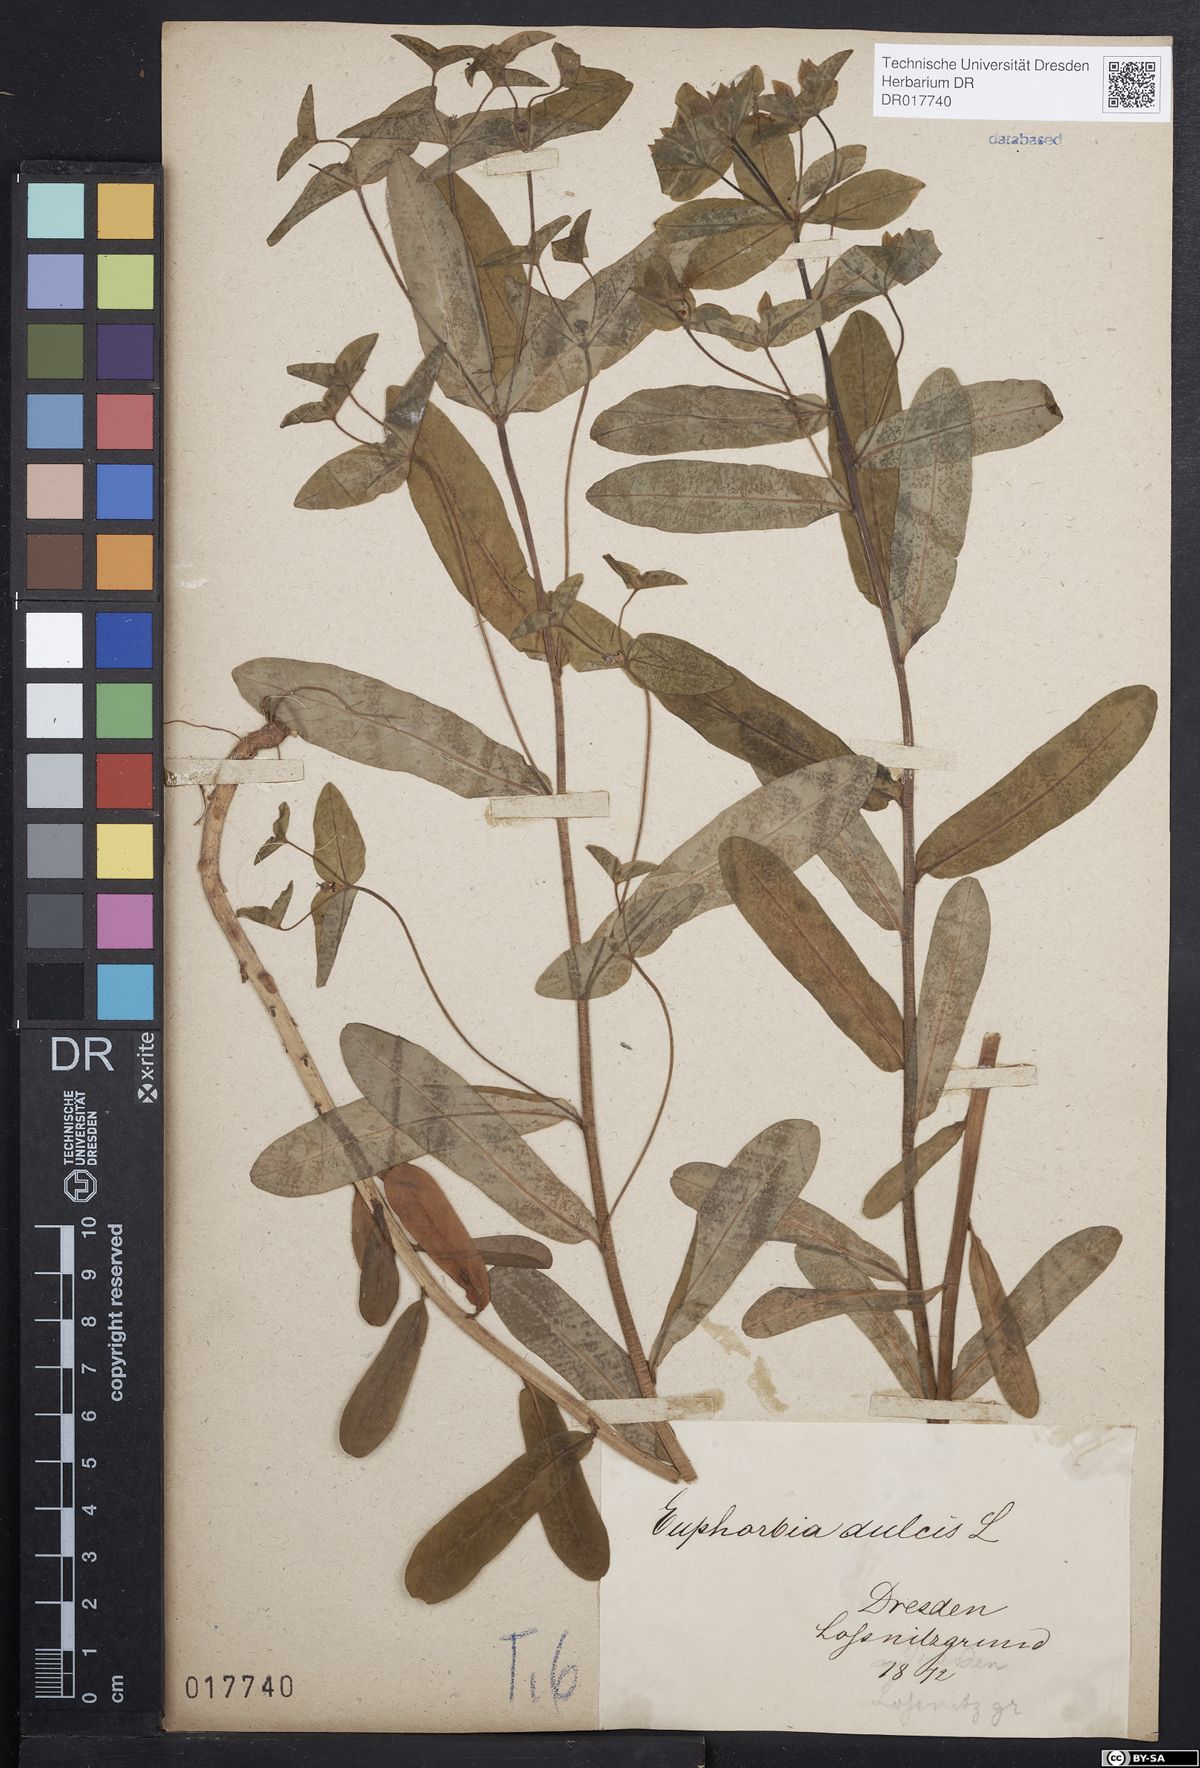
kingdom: Plantae
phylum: Tracheophyta
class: Magnoliopsida
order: Malpighiales
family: Euphorbiaceae
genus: Euphorbia
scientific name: Euphorbia dulcis
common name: Sweet spurge
